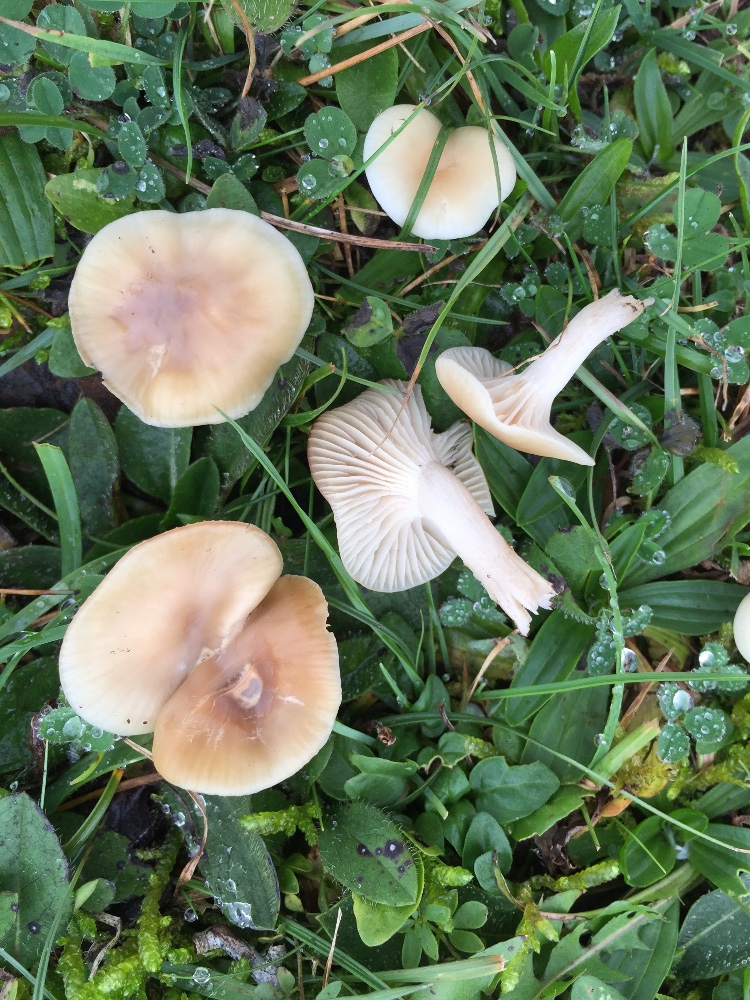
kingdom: Fungi
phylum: Basidiomycota
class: Agaricomycetes
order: Agaricales
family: Hygrophoraceae
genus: Cuphophyllus
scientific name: Cuphophyllus
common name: vokshat
